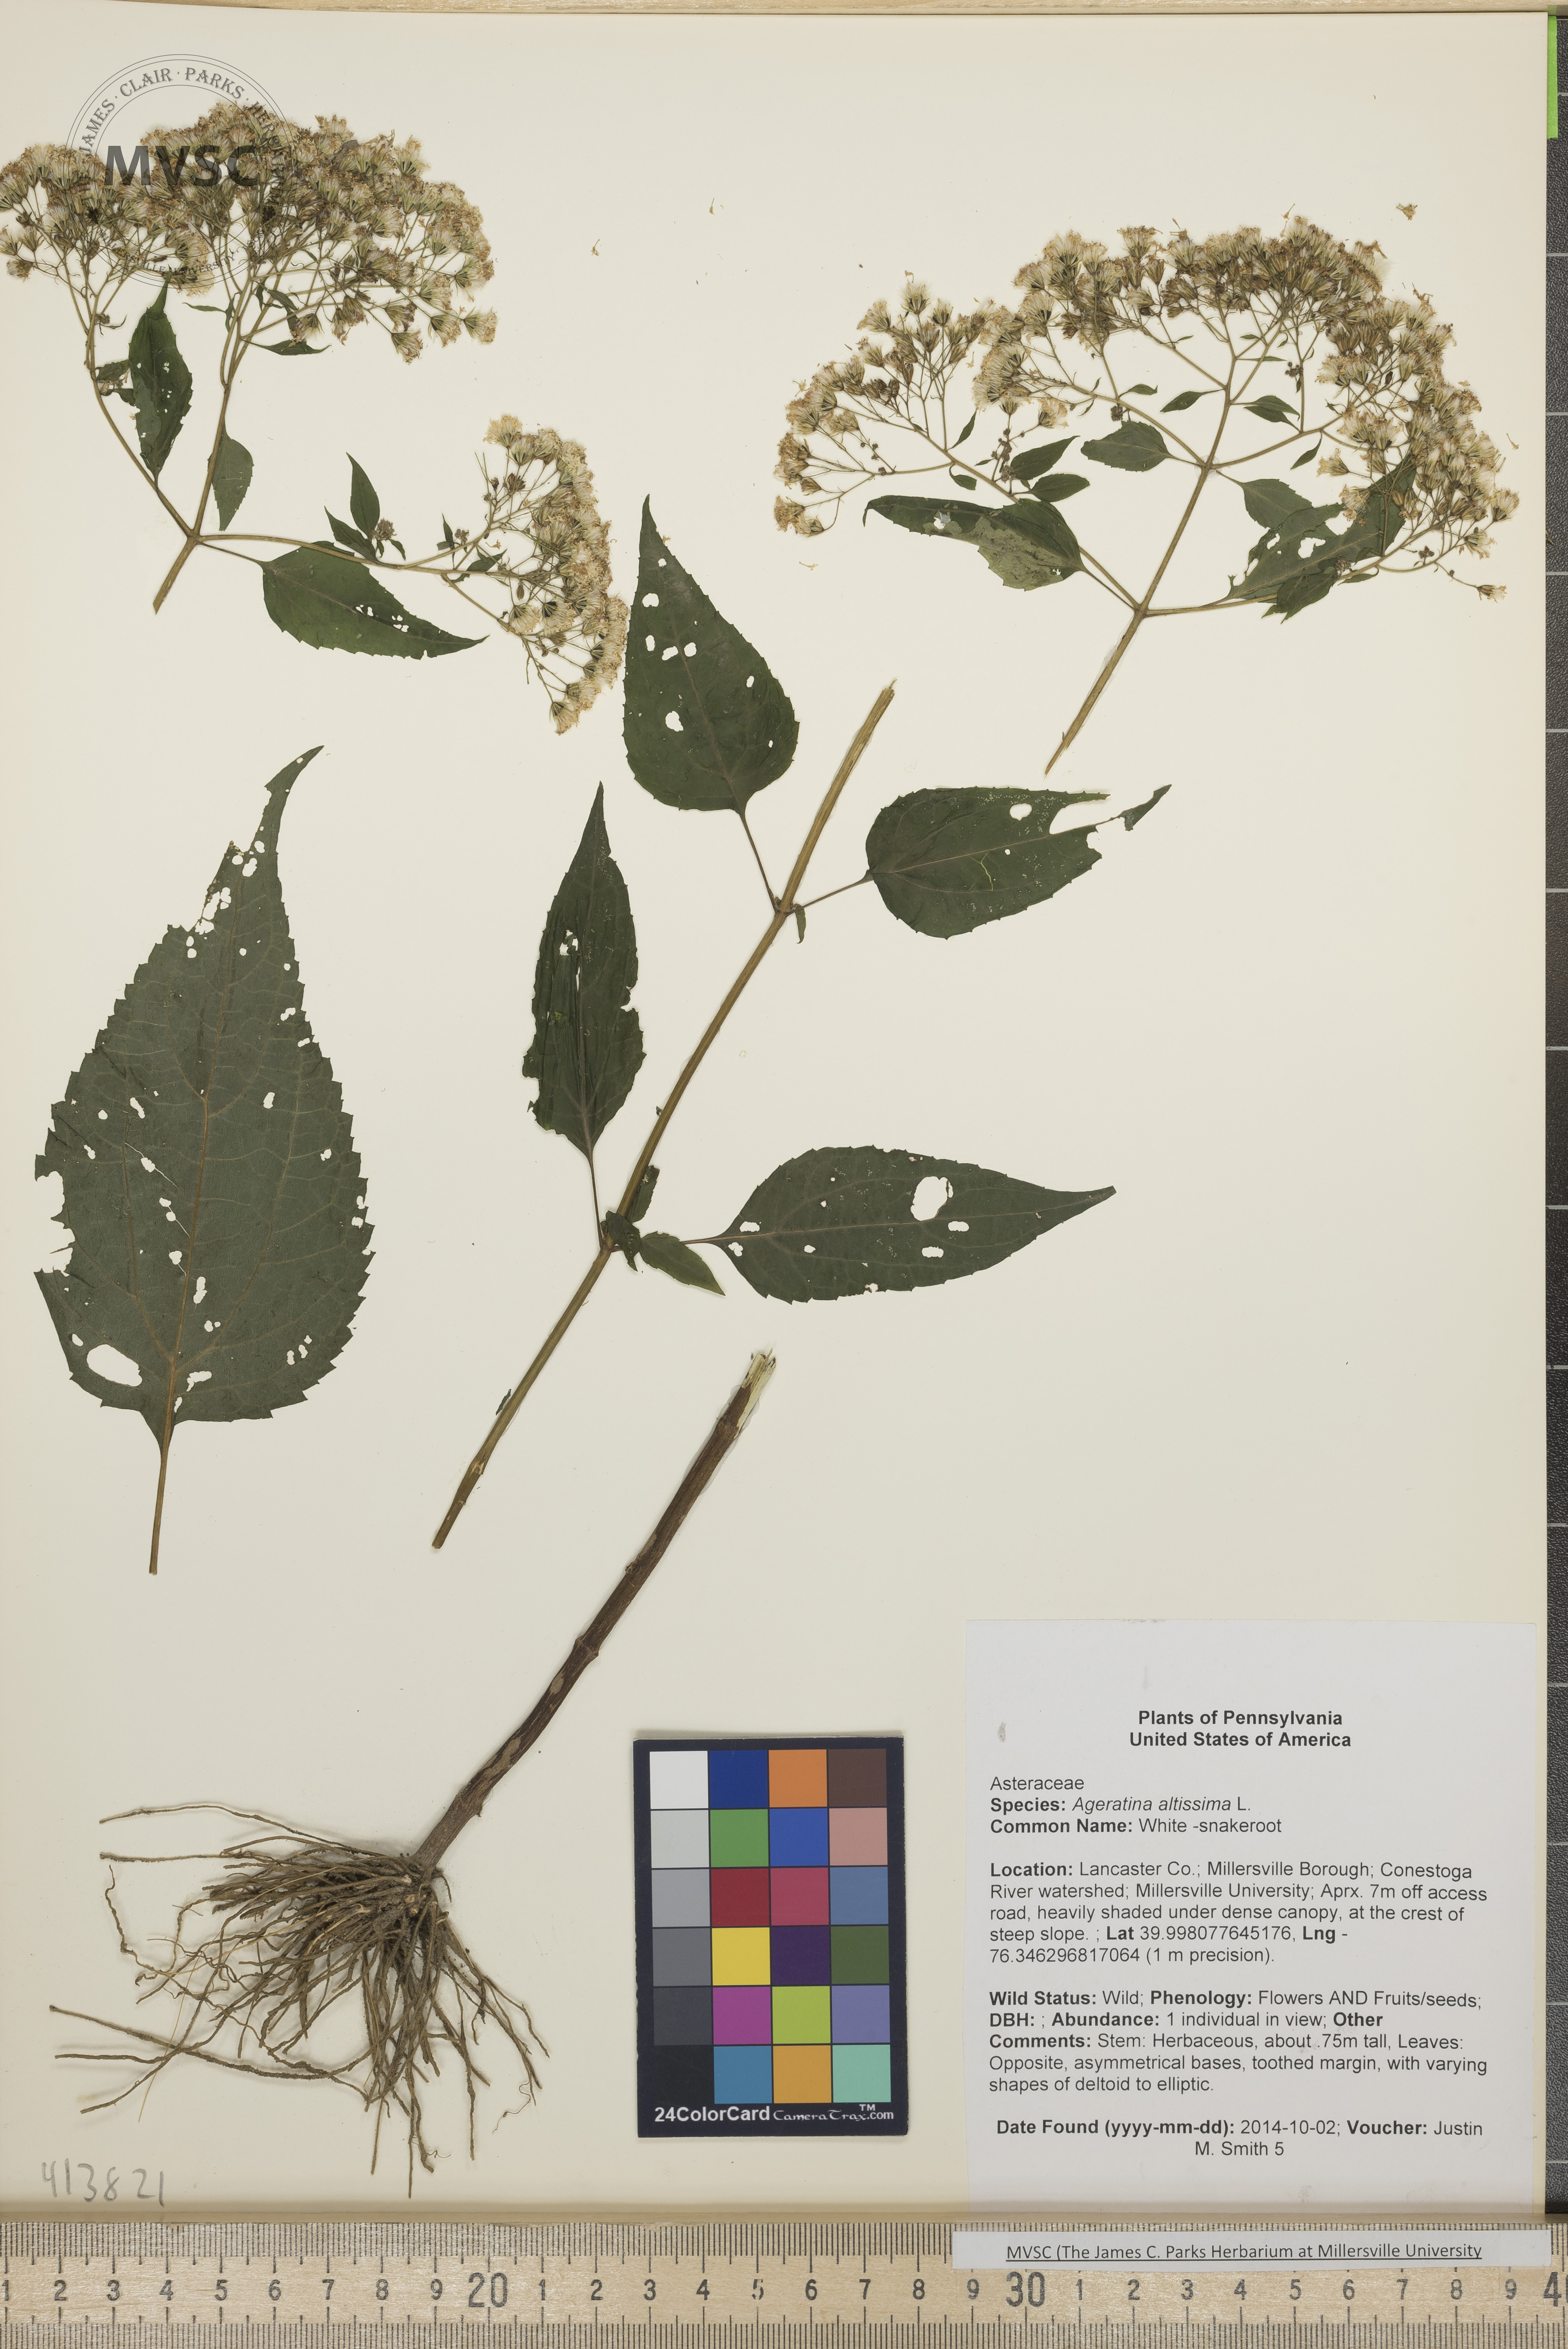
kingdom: Plantae
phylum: Tracheophyta
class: Magnoliopsida
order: Asterales
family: Asteraceae
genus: Ageratina
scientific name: Ageratina altissima
